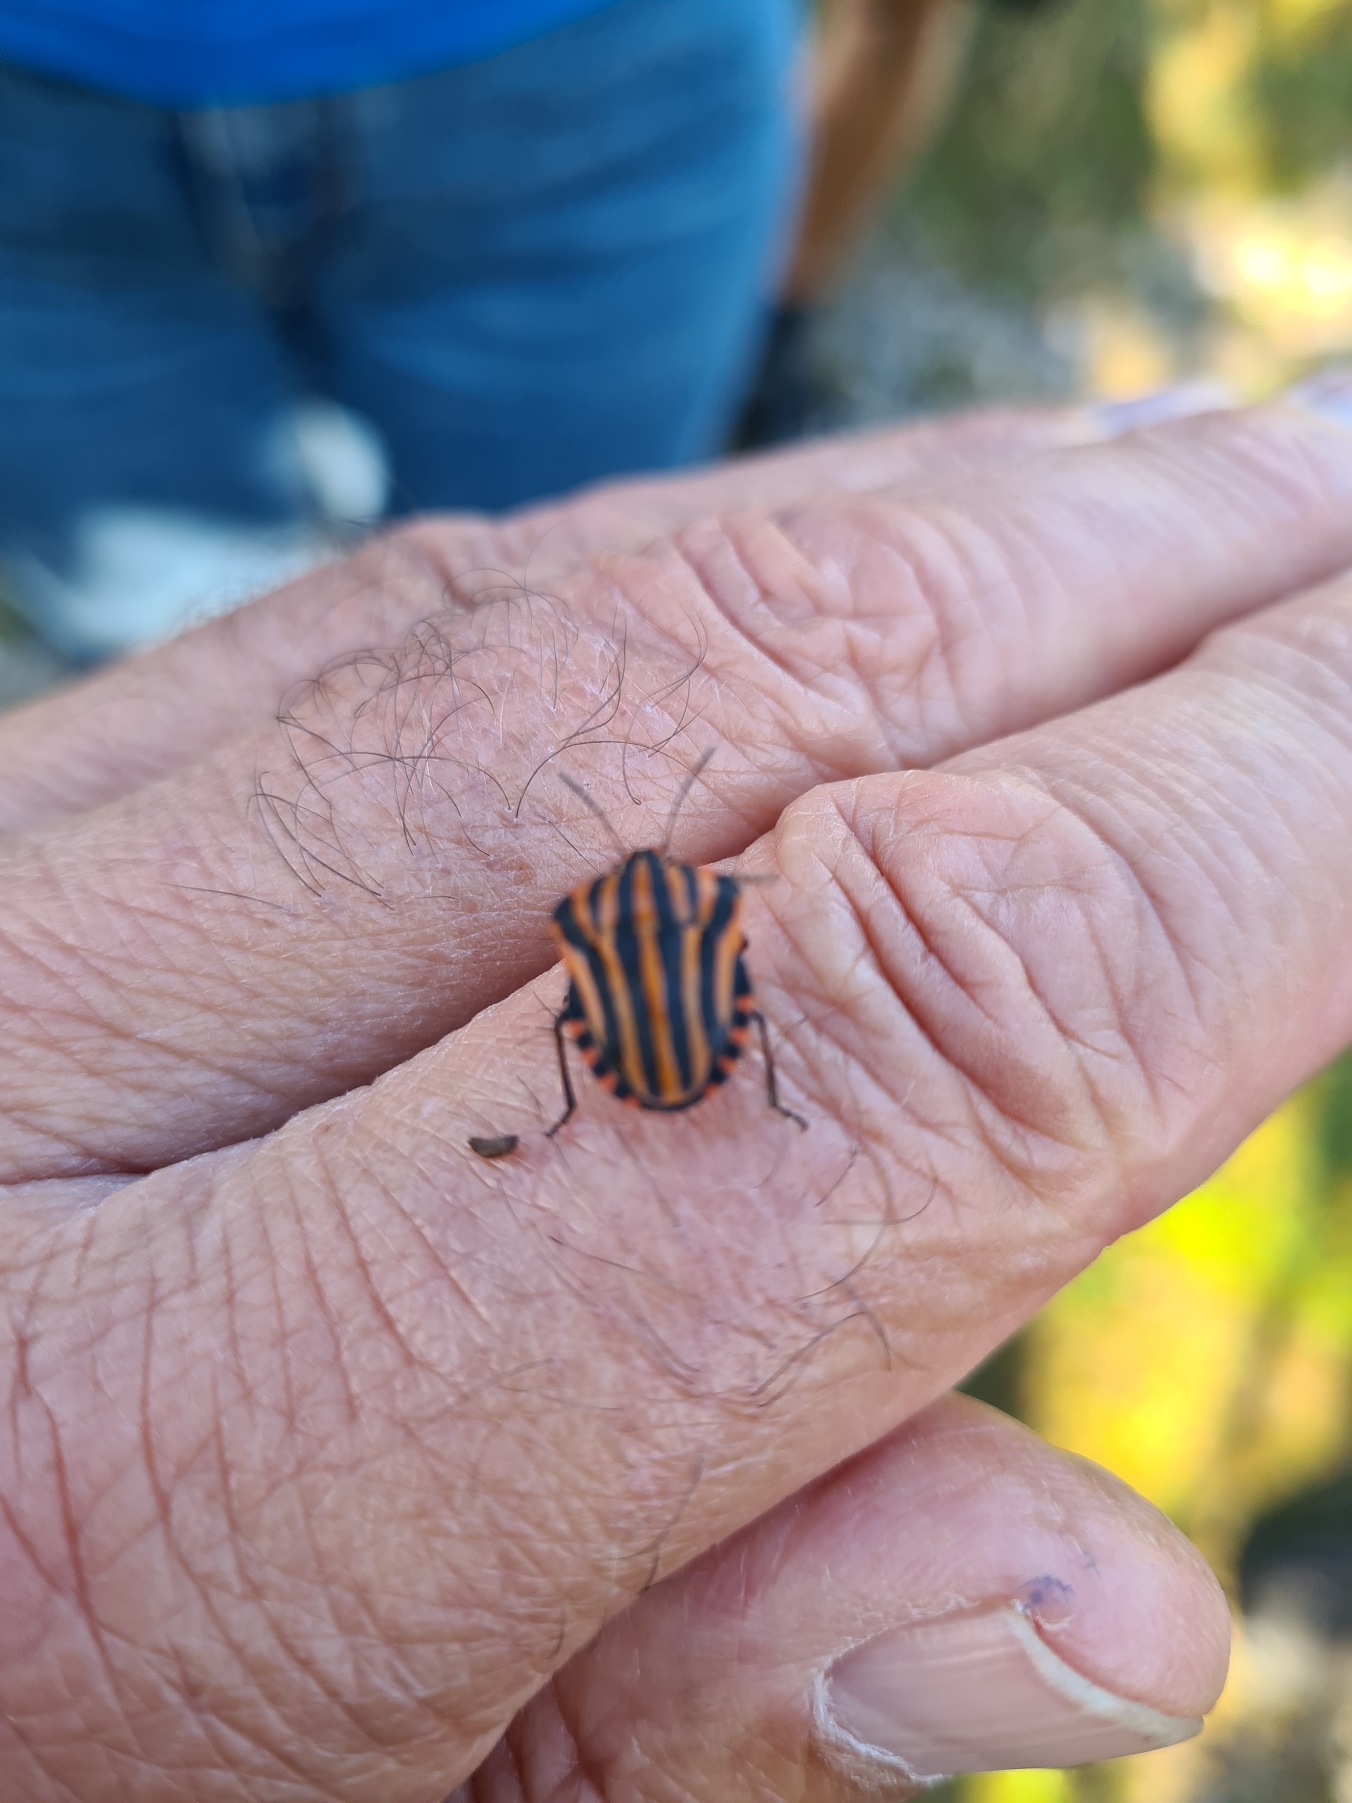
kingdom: Animalia
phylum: Arthropoda
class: Insecta
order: Hemiptera
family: Pentatomidae
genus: Graphosoma
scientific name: Graphosoma italicum
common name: Stribetæge
